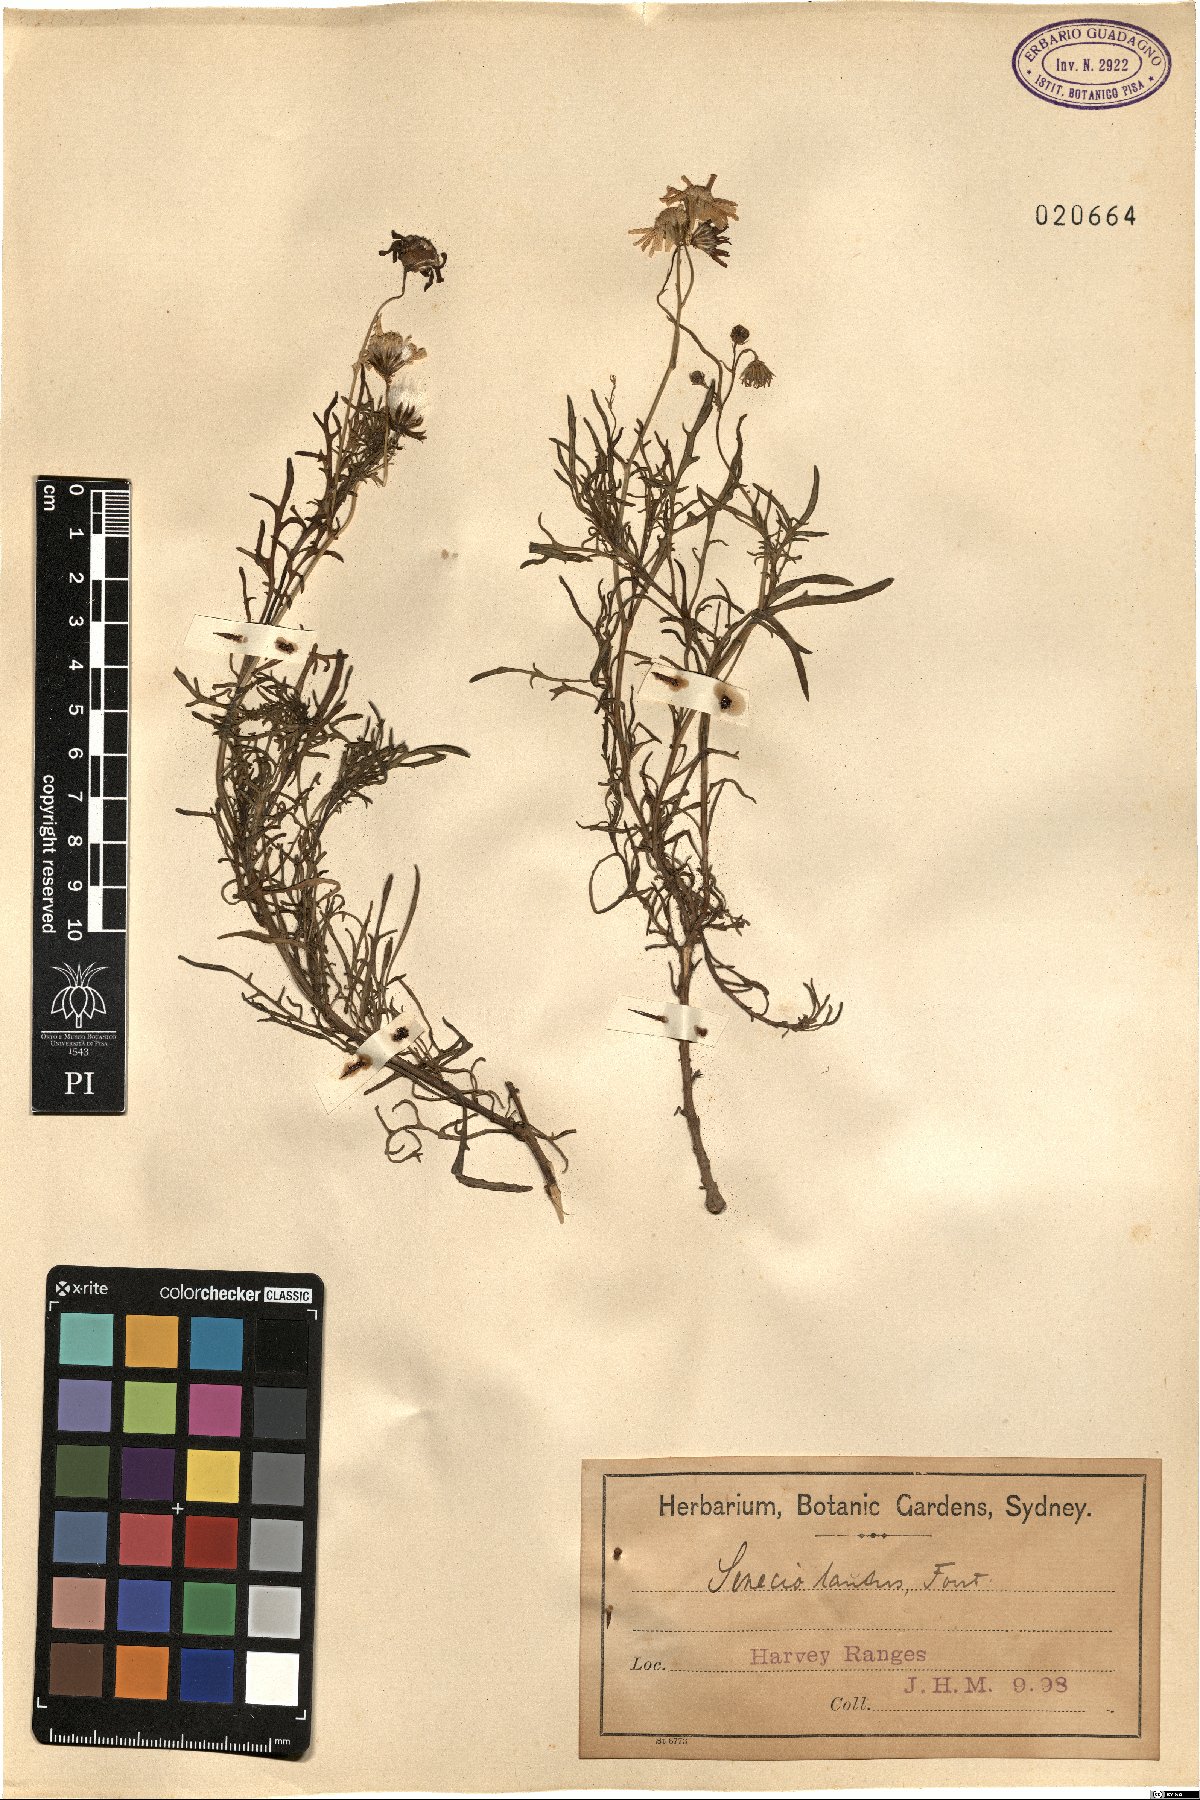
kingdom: Plantae
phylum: Tracheophyta
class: Magnoliopsida
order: Asterales
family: Asteraceae
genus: Senecio
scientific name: Senecio
